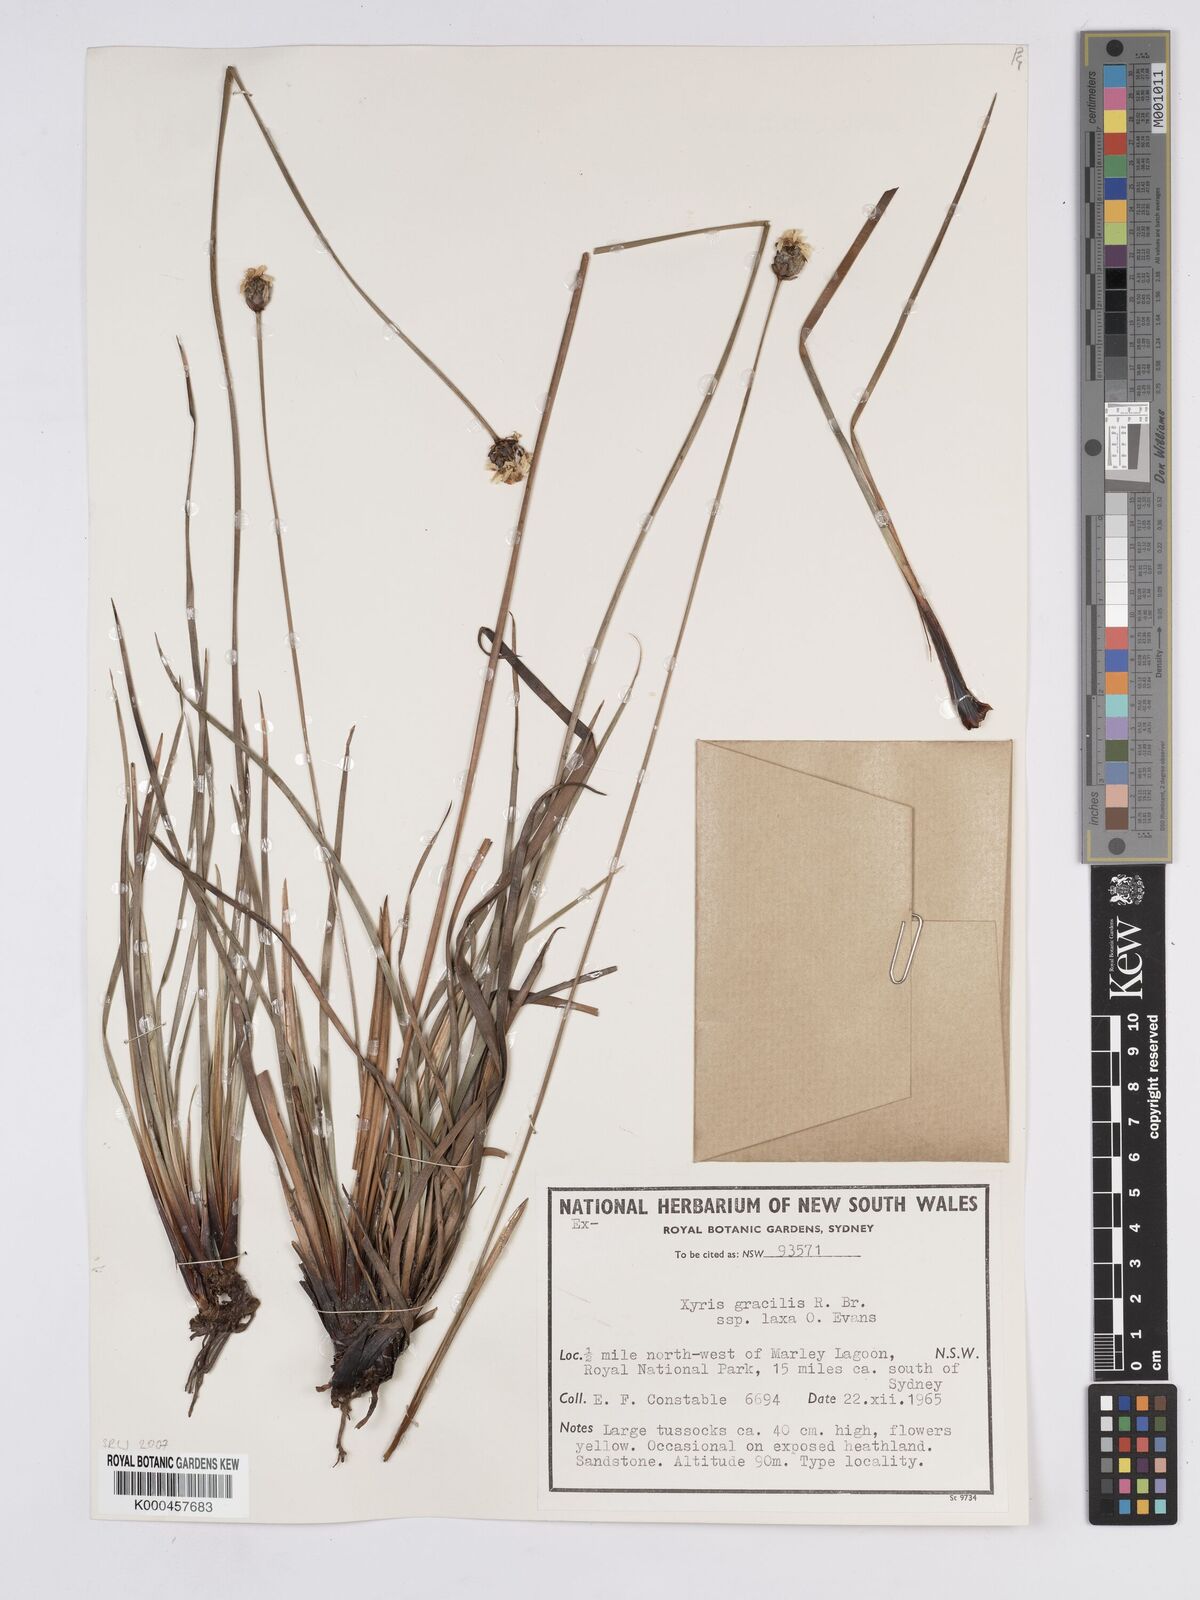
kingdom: Plantae
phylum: Tracheophyta
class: Liliopsida
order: Poales
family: Xyridaceae
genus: Xyris
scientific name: Xyris bracteata
